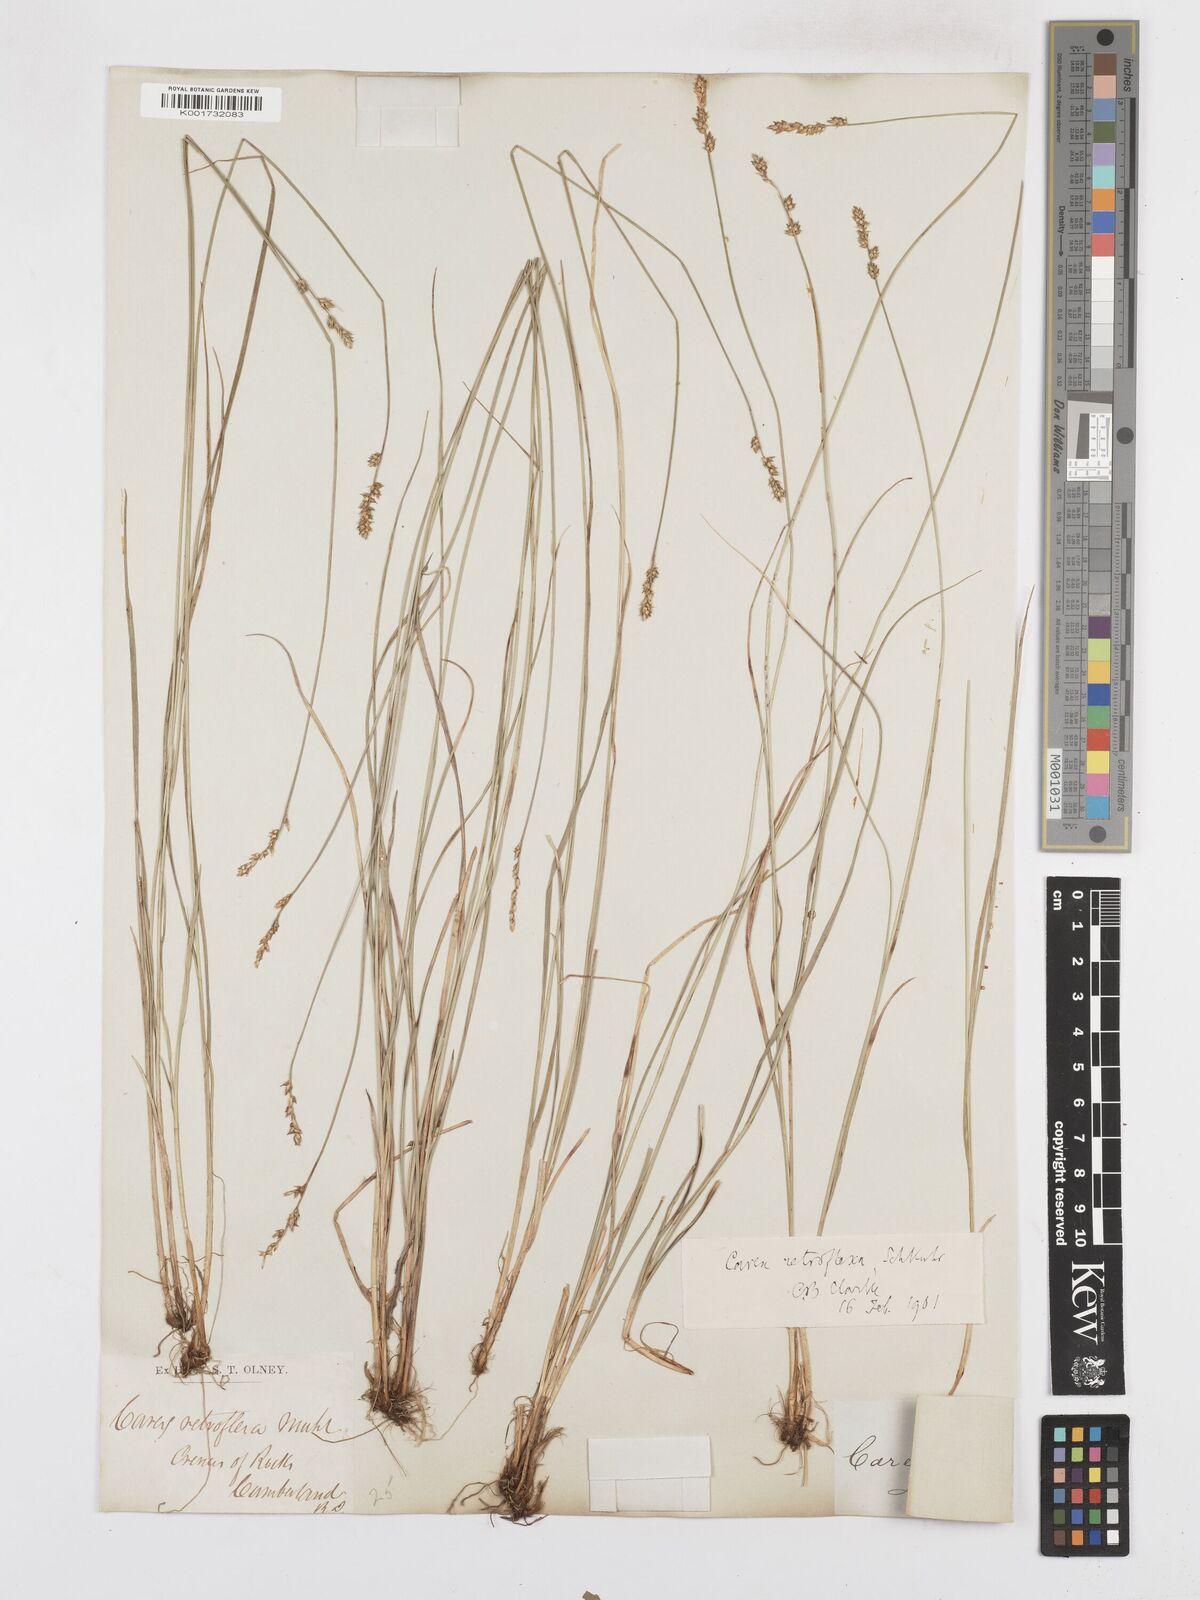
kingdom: Plantae
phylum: Tracheophyta
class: Liliopsida
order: Poales
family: Cyperaceae
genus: Carex
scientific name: Carex retroflexa
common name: Reflexed sedge
